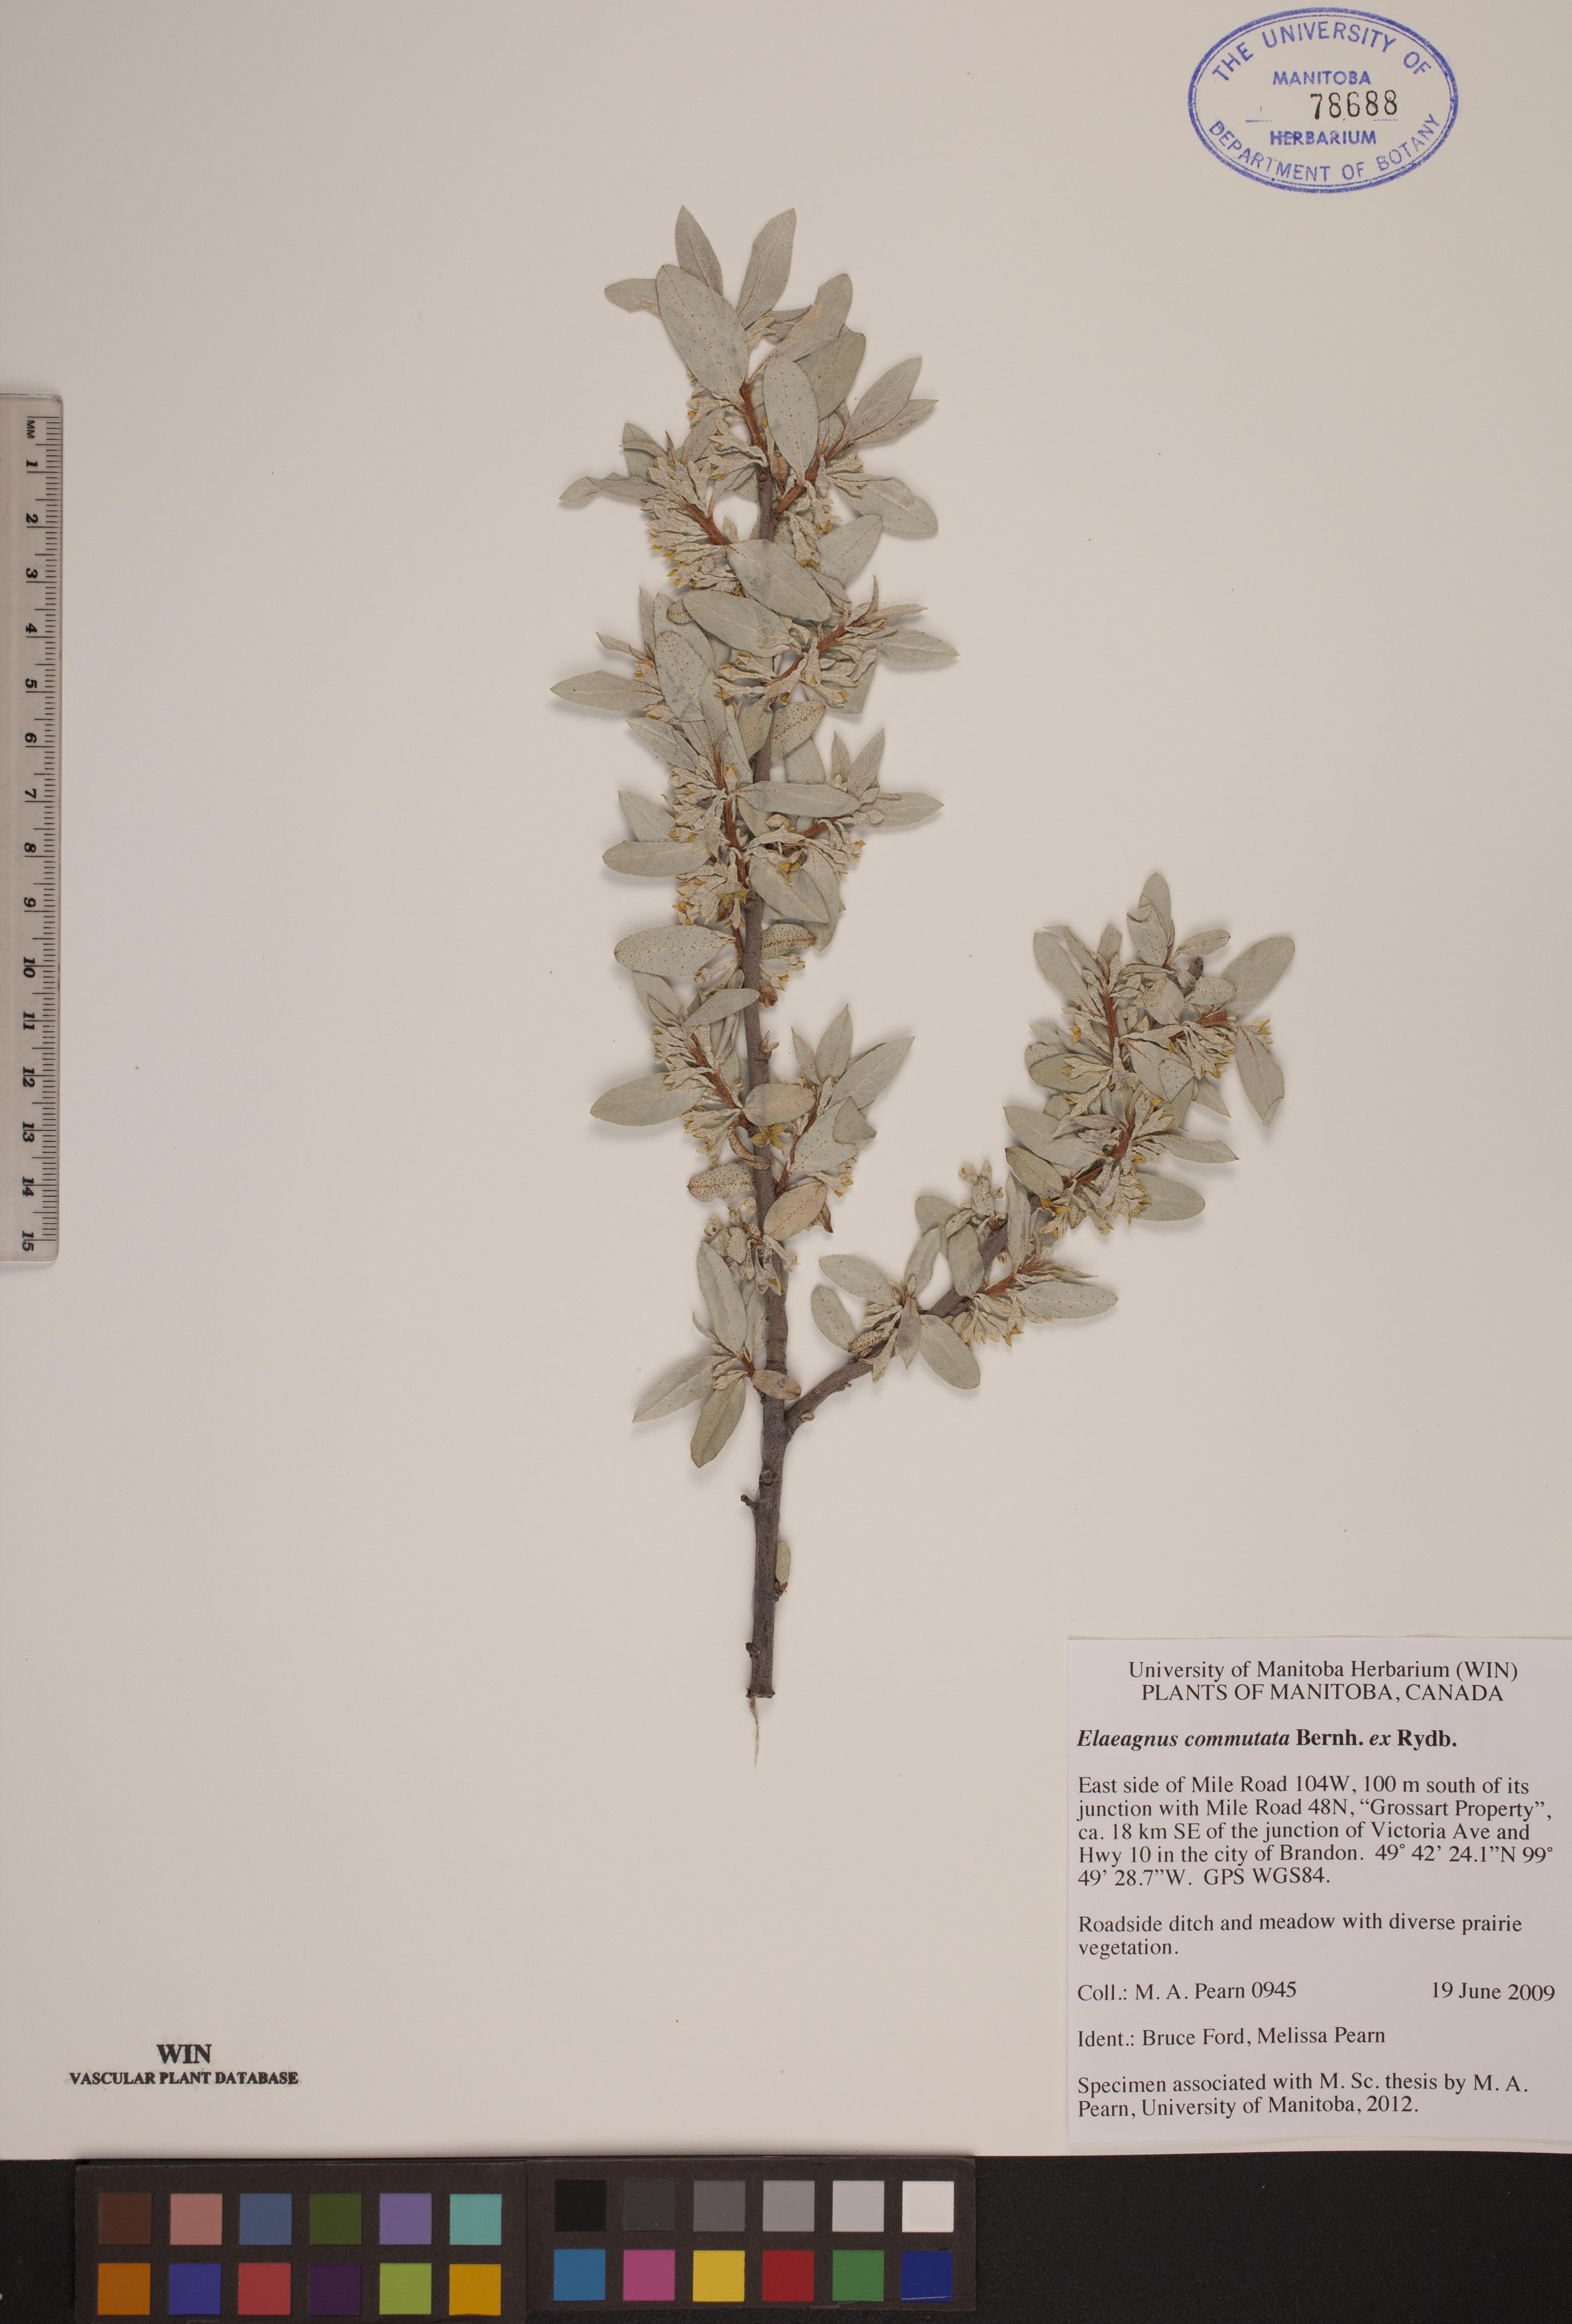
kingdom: Plantae
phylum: Tracheophyta
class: Magnoliopsida
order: Rosales
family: Elaeagnaceae
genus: Elaeagnus
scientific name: Elaeagnus commutata
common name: Silverberry
